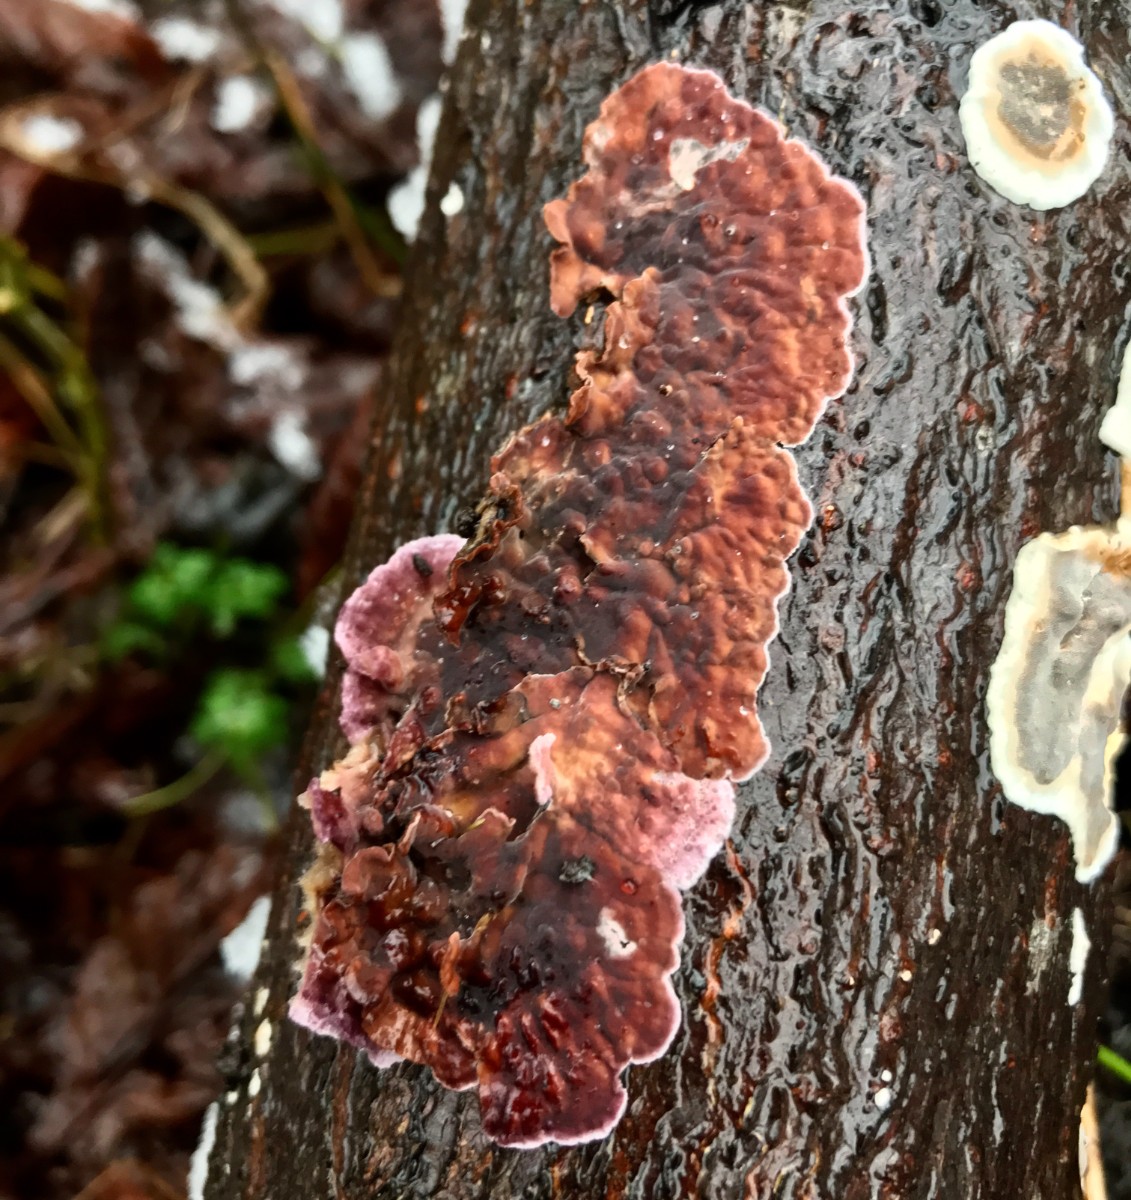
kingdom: Fungi
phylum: Basidiomycota
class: Agaricomycetes
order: Agaricales
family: Cyphellaceae
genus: Chondrostereum
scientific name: Chondrostereum purpureum
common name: purpurlædersvamp
